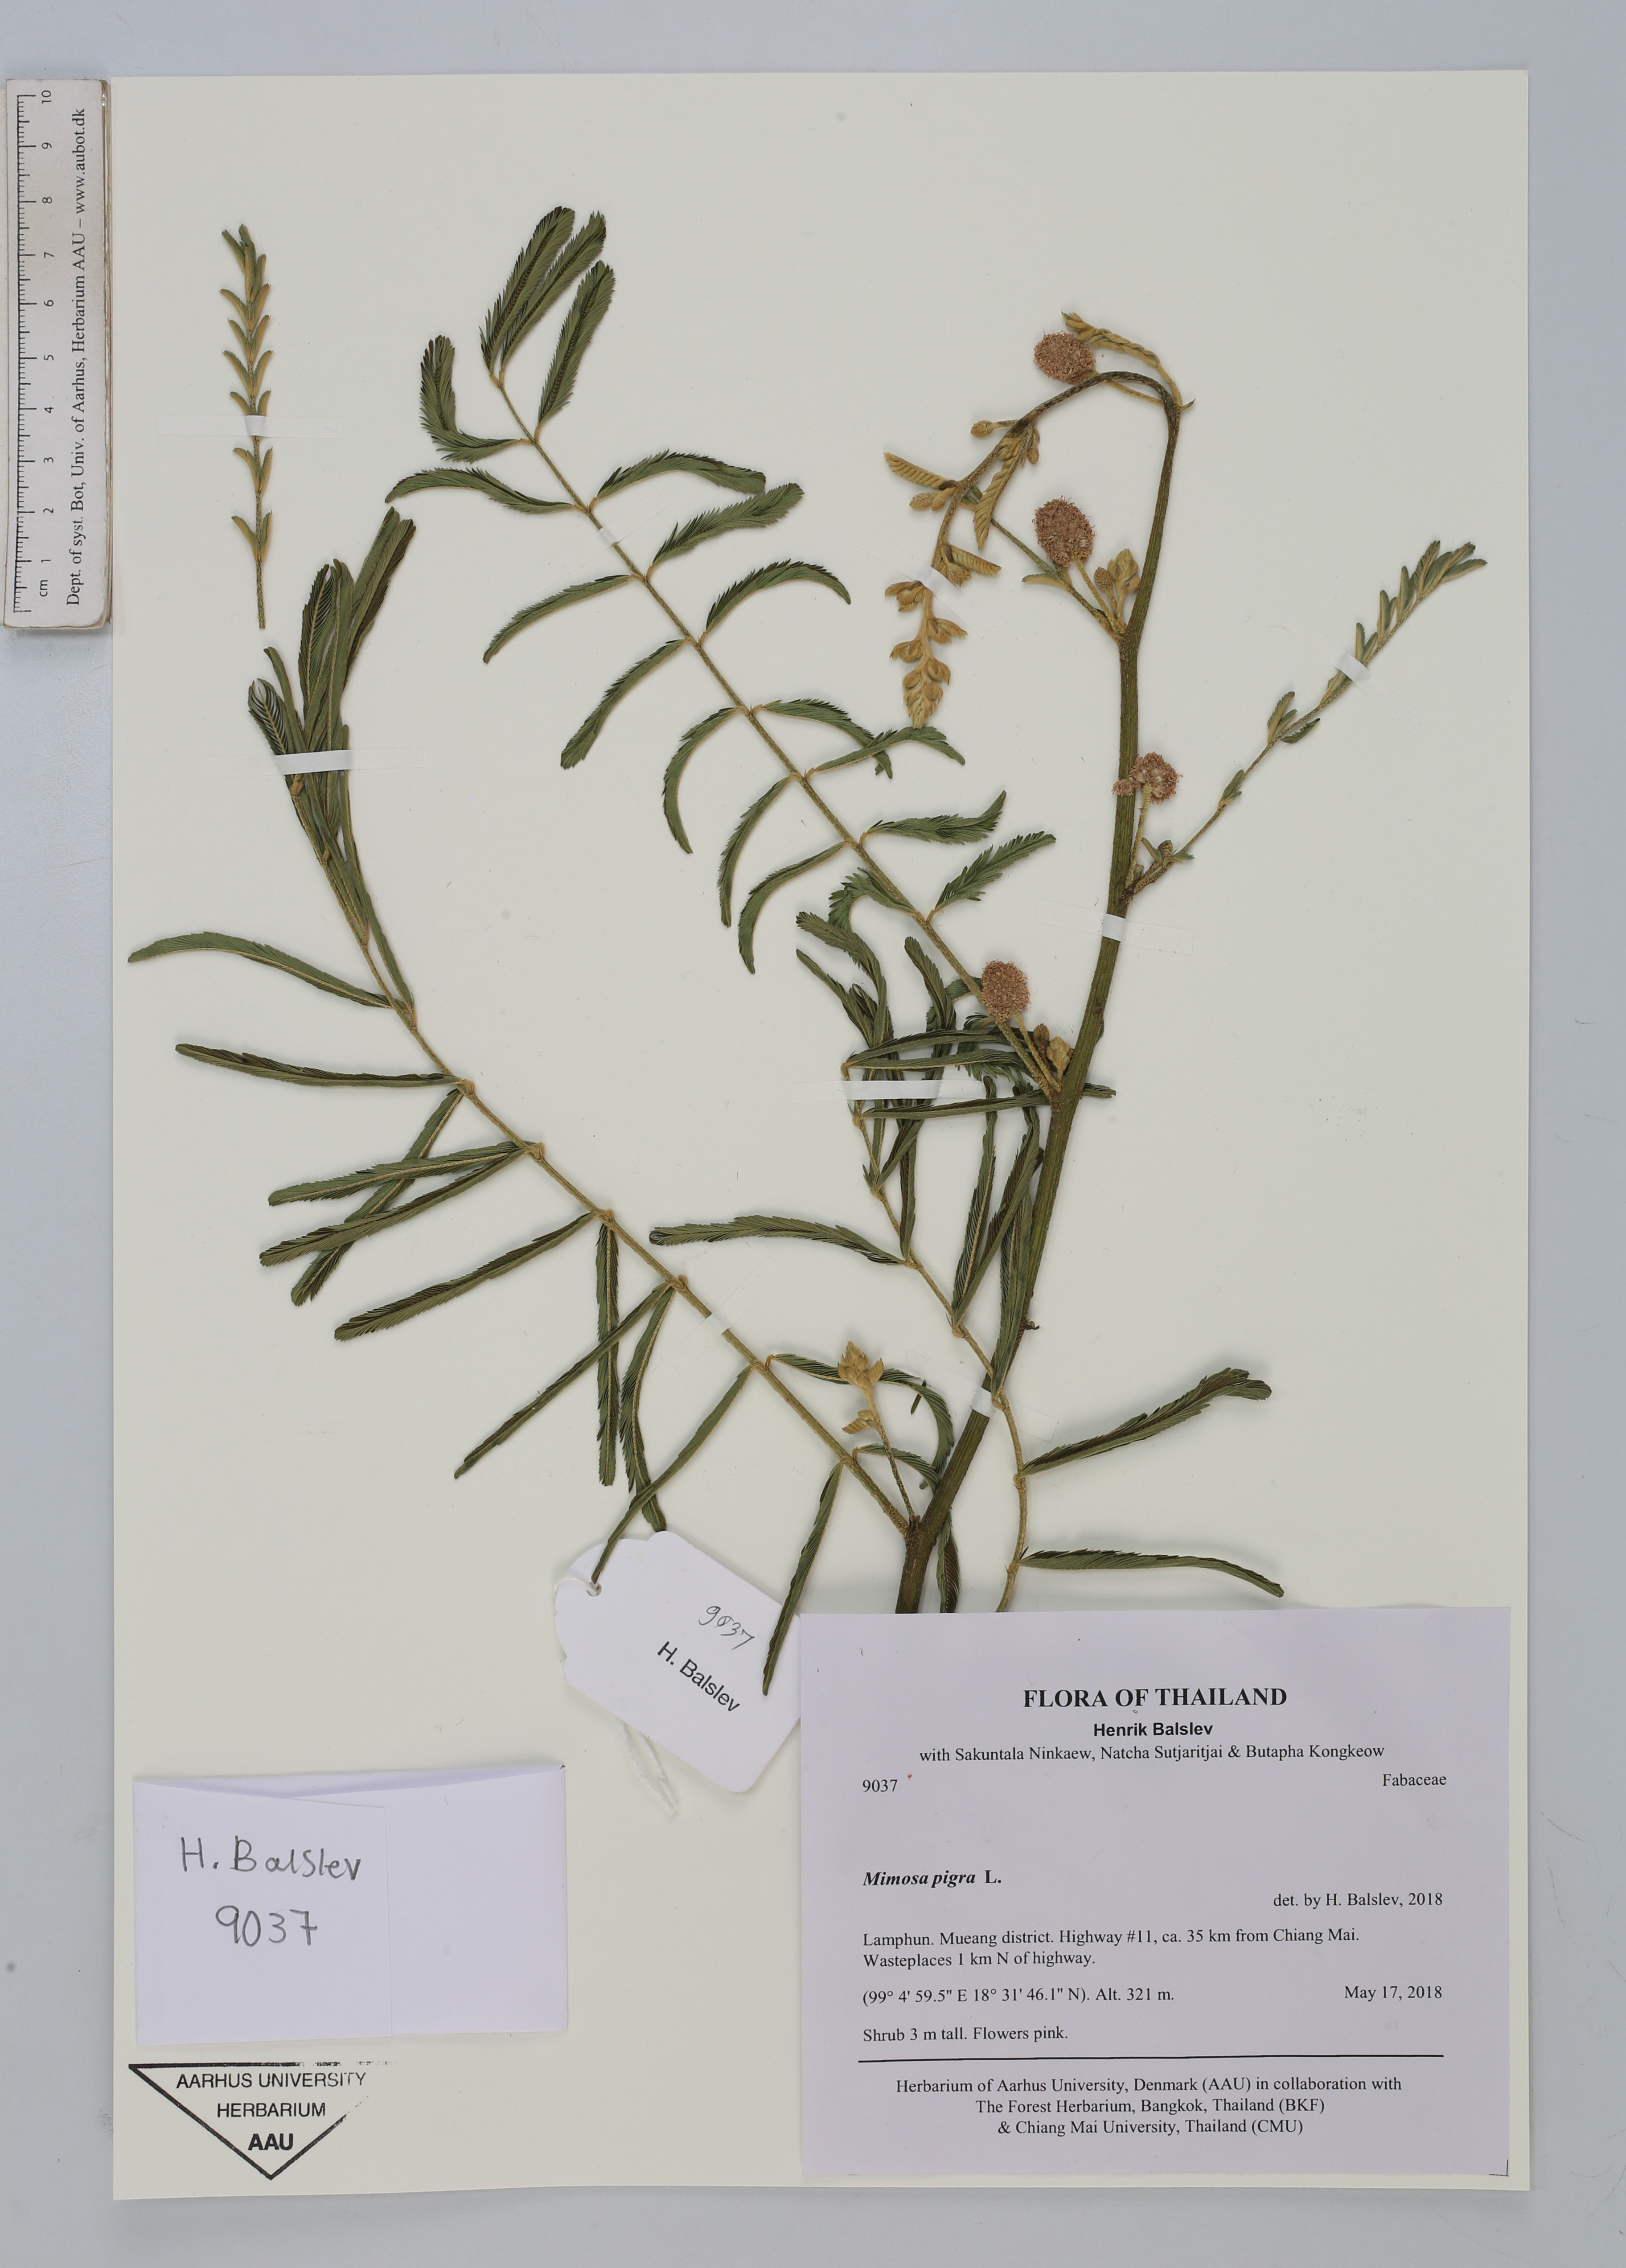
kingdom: Plantae
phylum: Tracheophyta
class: Magnoliopsida
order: Fabales
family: Fabaceae
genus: Mimosa
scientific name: Mimosa pigra
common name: Black mimosa
